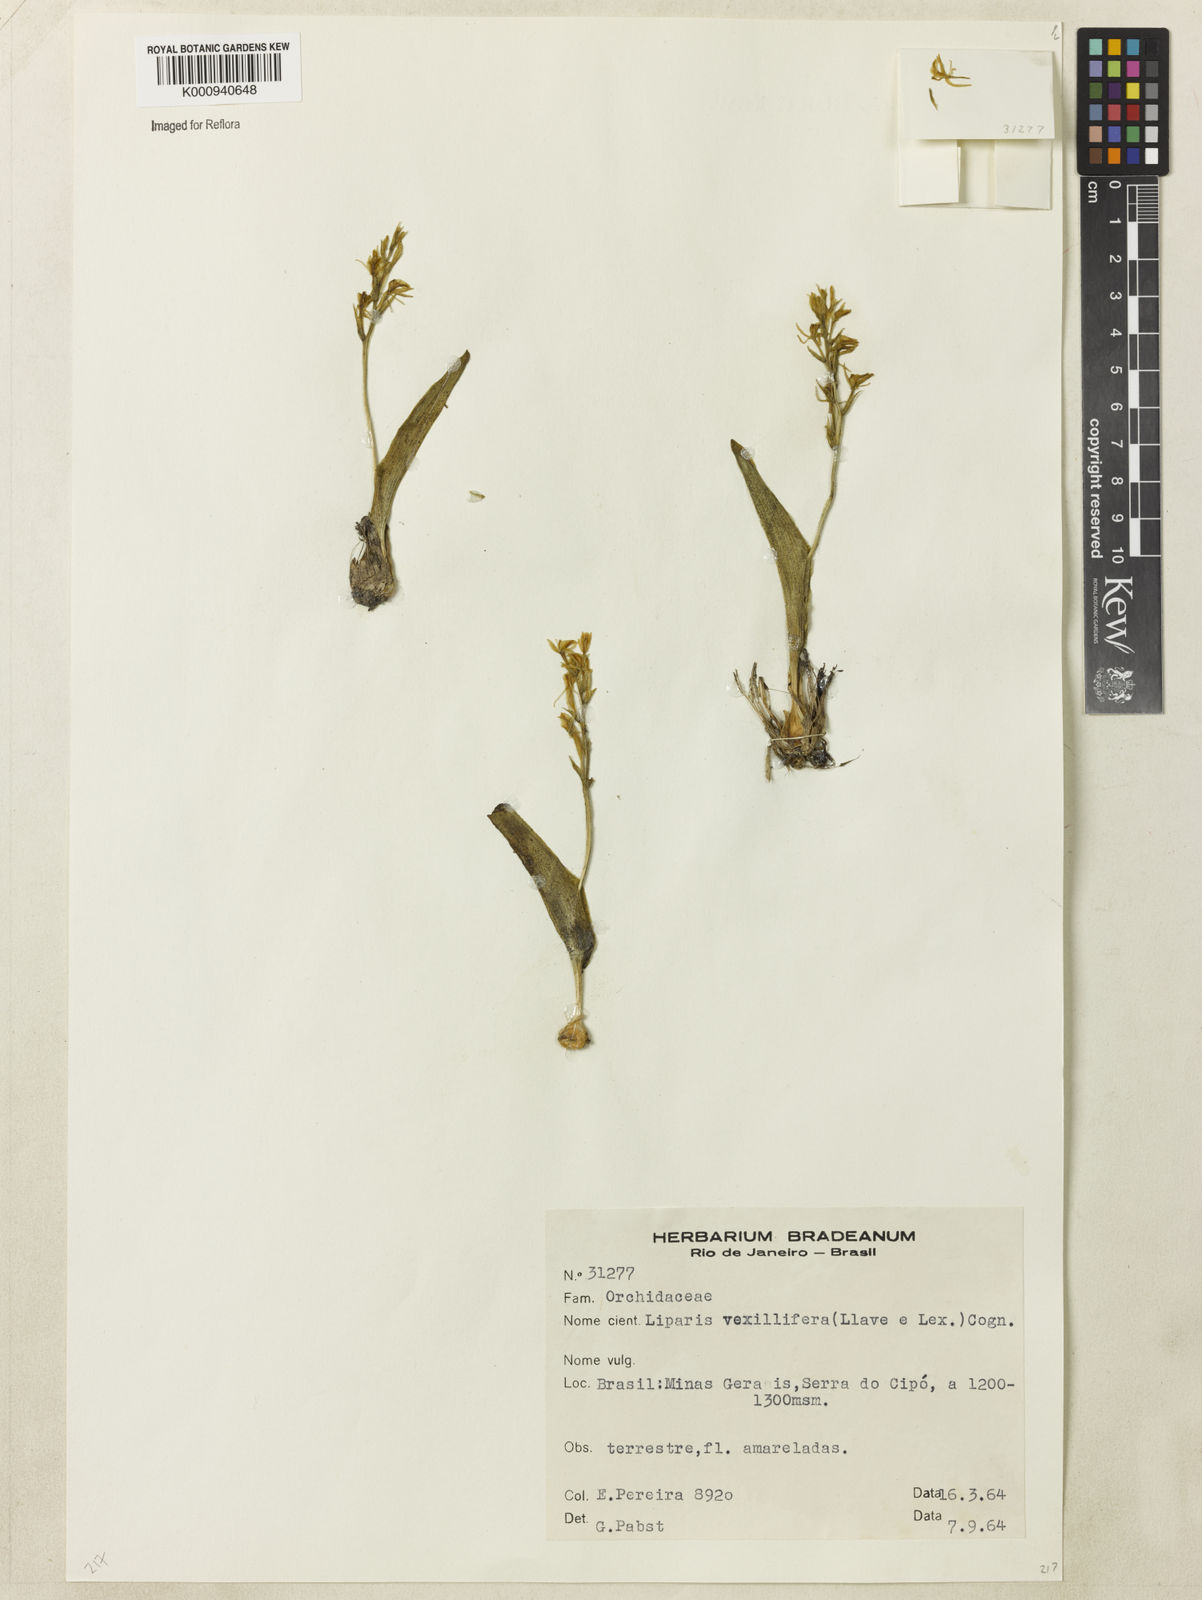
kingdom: Plantae
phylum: Tracheophyta
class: Liliopsida
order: Asparagales
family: Orchidaceae
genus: Liparis
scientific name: Liparis jamaicensis
